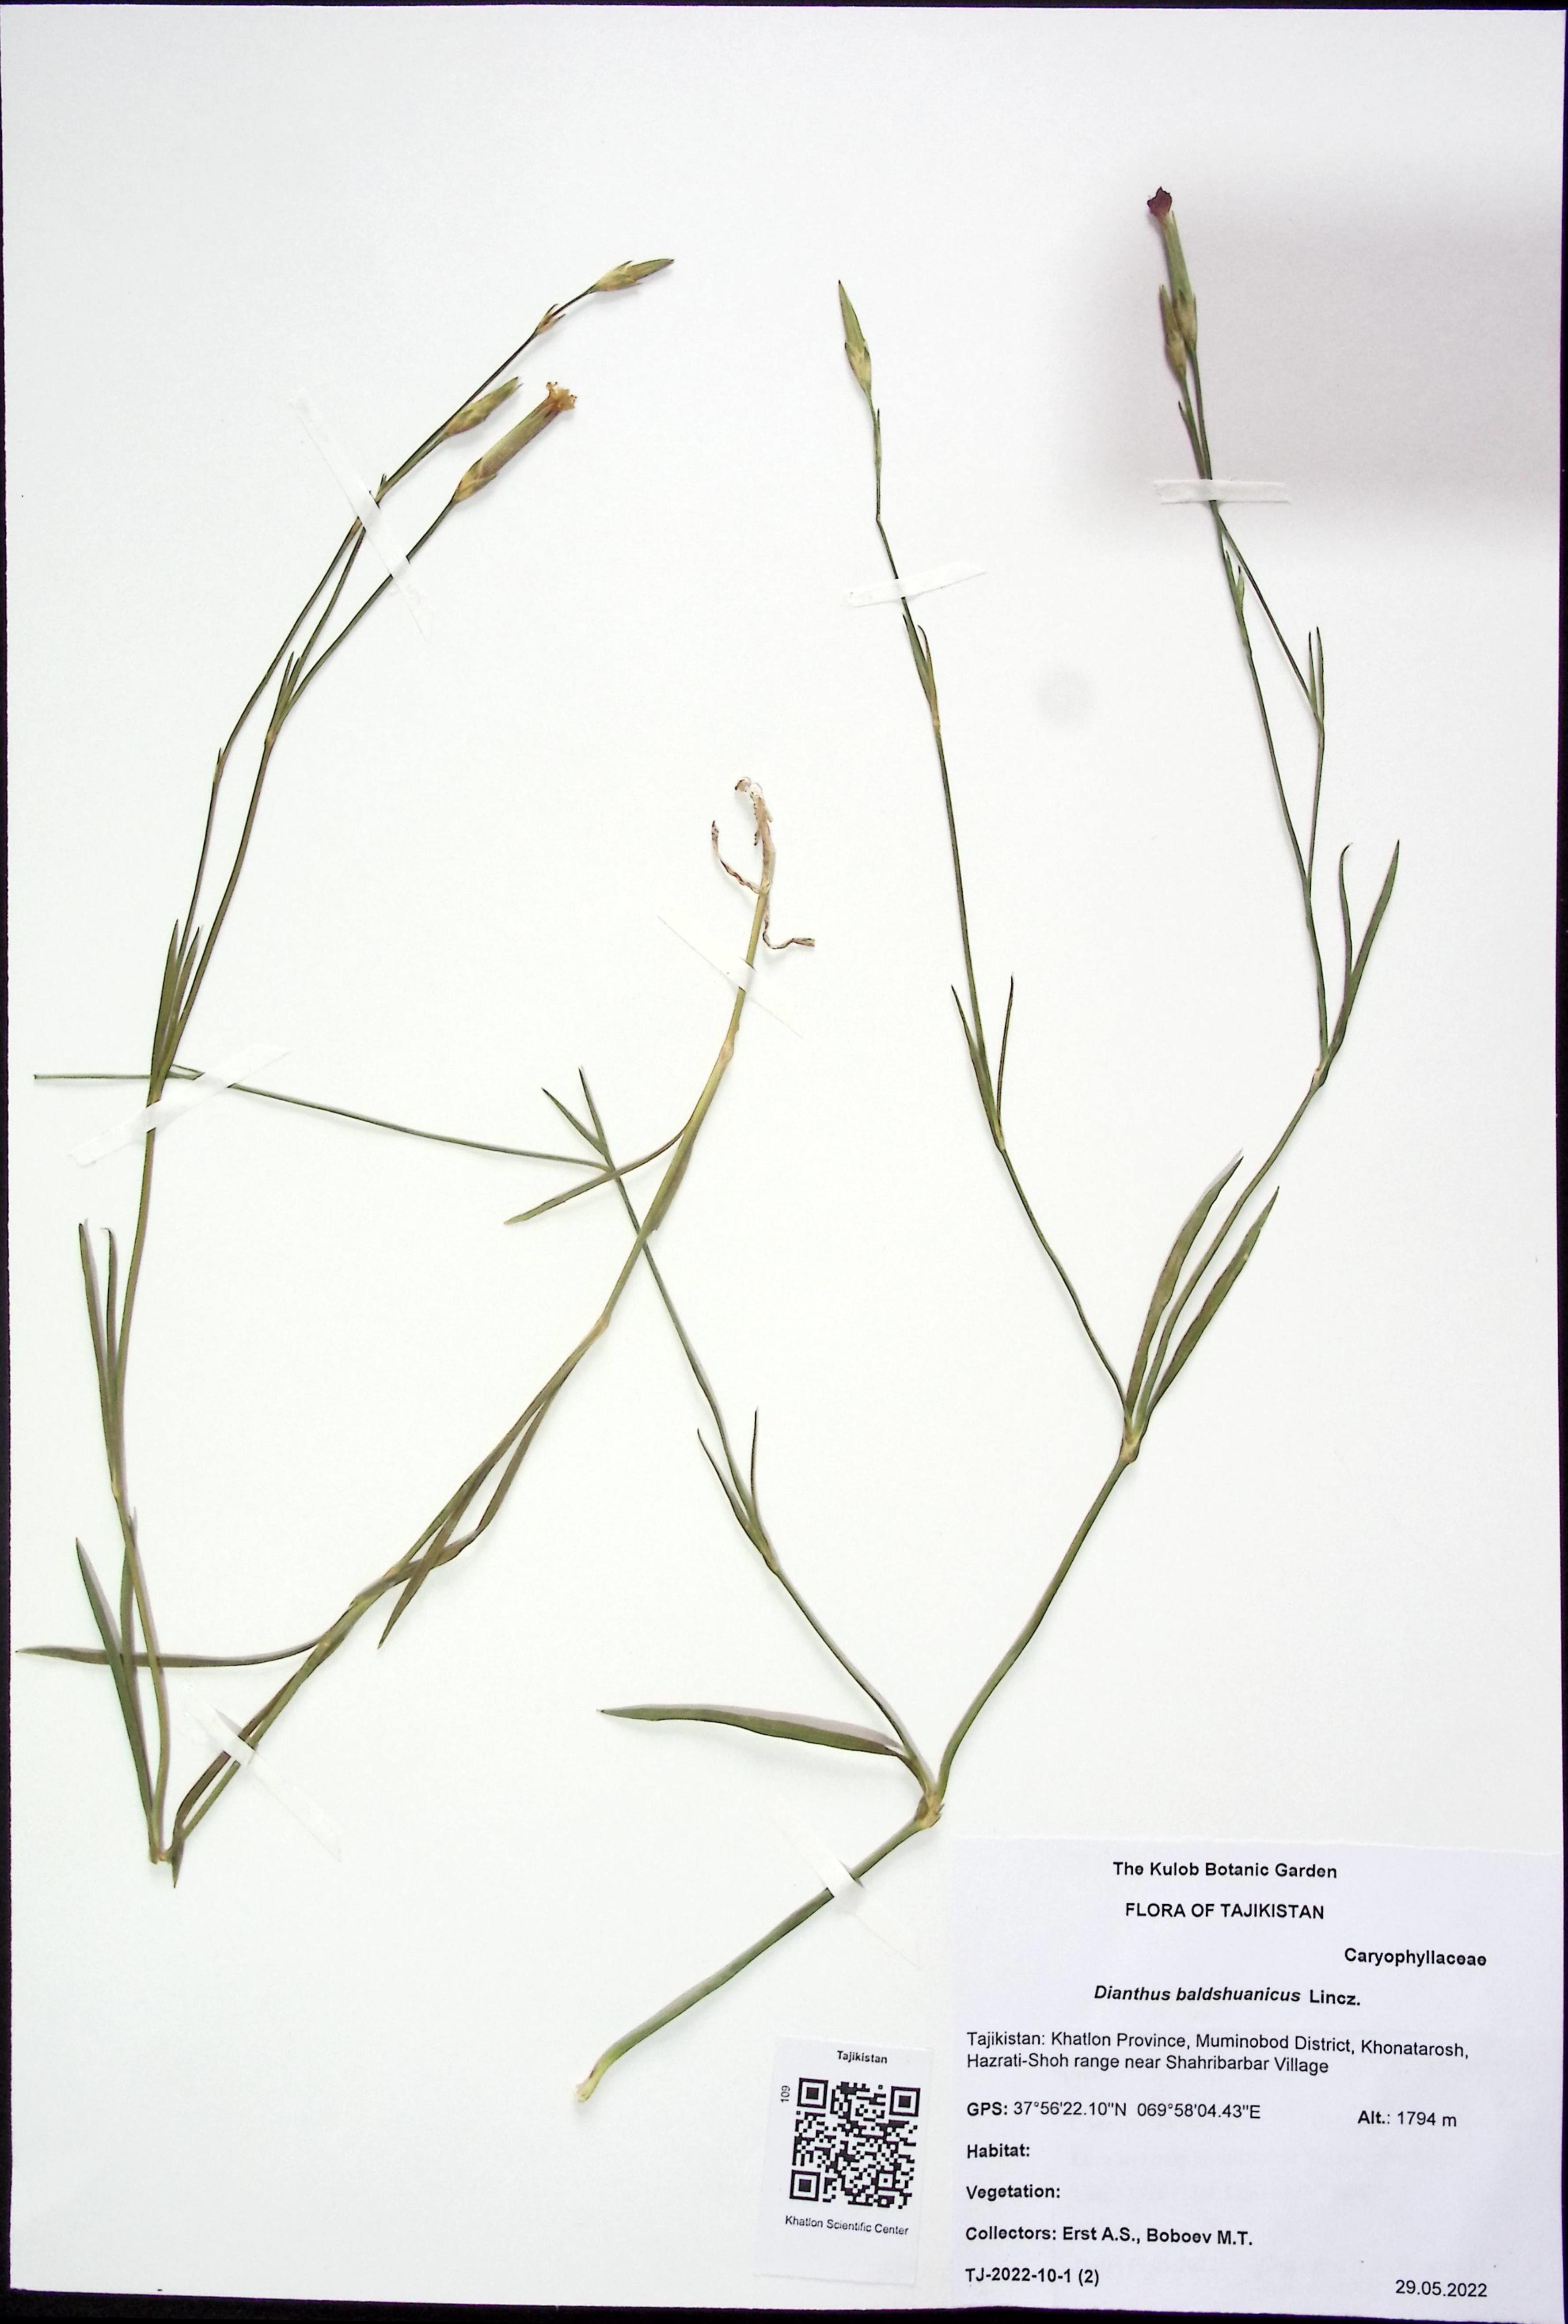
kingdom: Plantae
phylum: Tracheophyta
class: Magnoliopsida
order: Caryophyllales
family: Caryophyllaceae
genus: Dianthus
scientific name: Dianthus crinitus
